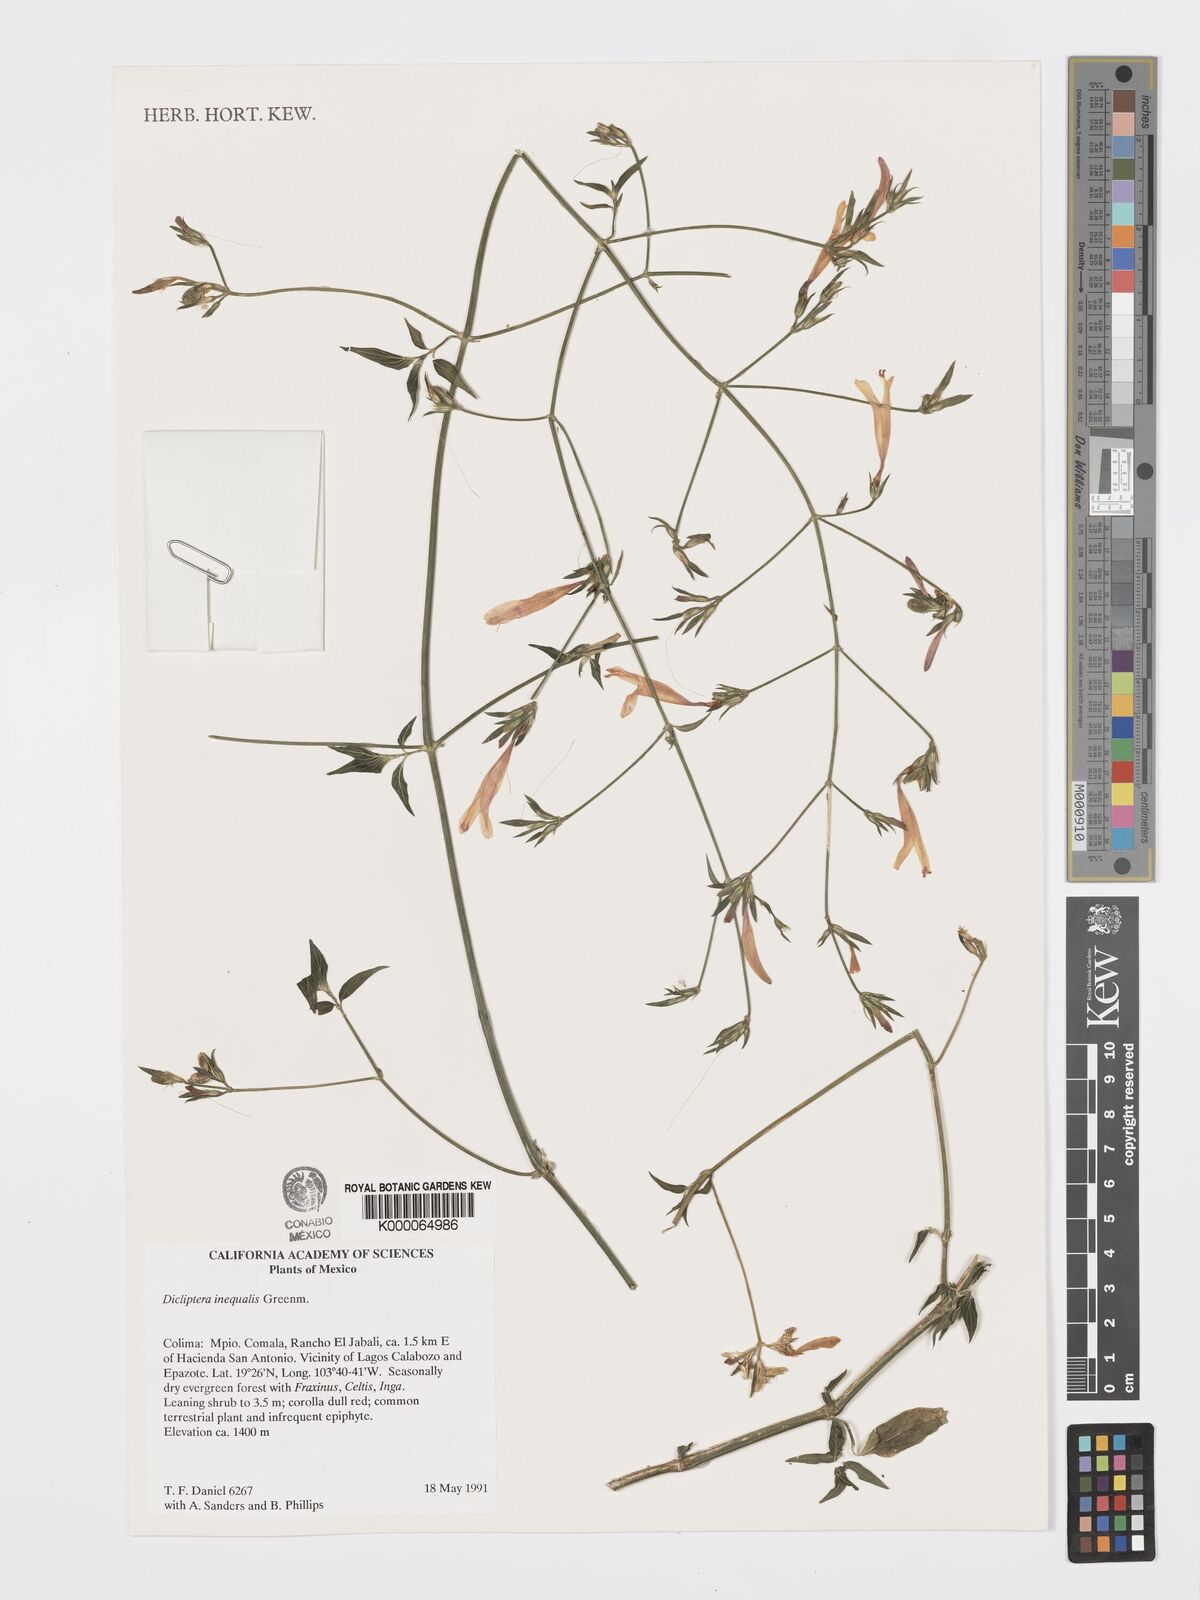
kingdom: Plantae
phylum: Tracheophyta
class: Magnoliopsida
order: Lamiales
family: Acanthaceae
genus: Dicliptera
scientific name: Dicliptera inaequalis
